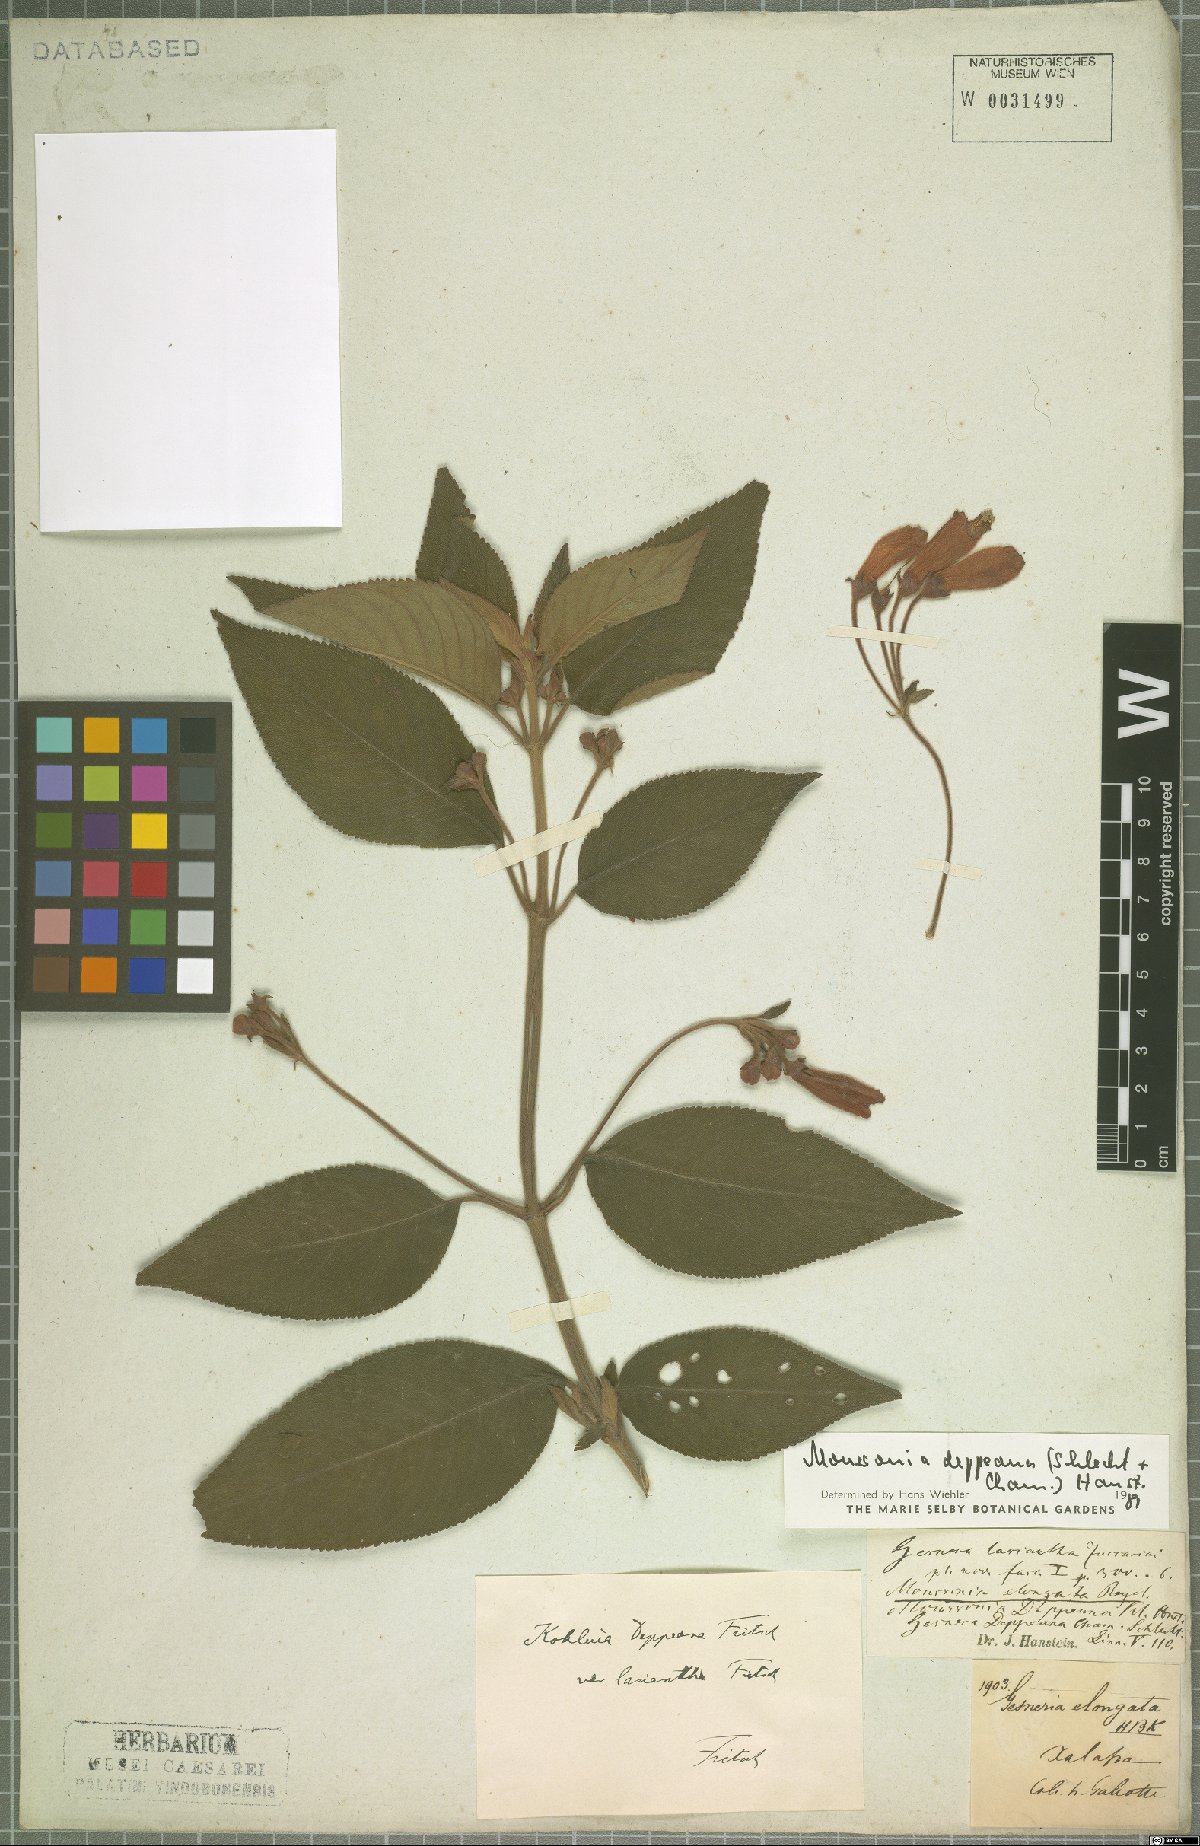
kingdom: Plantae
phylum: Tracheophyta
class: Magnoliopsida
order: Lamiales
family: Gesneriaceae
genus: Moussonia
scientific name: Moussonia deppeana
